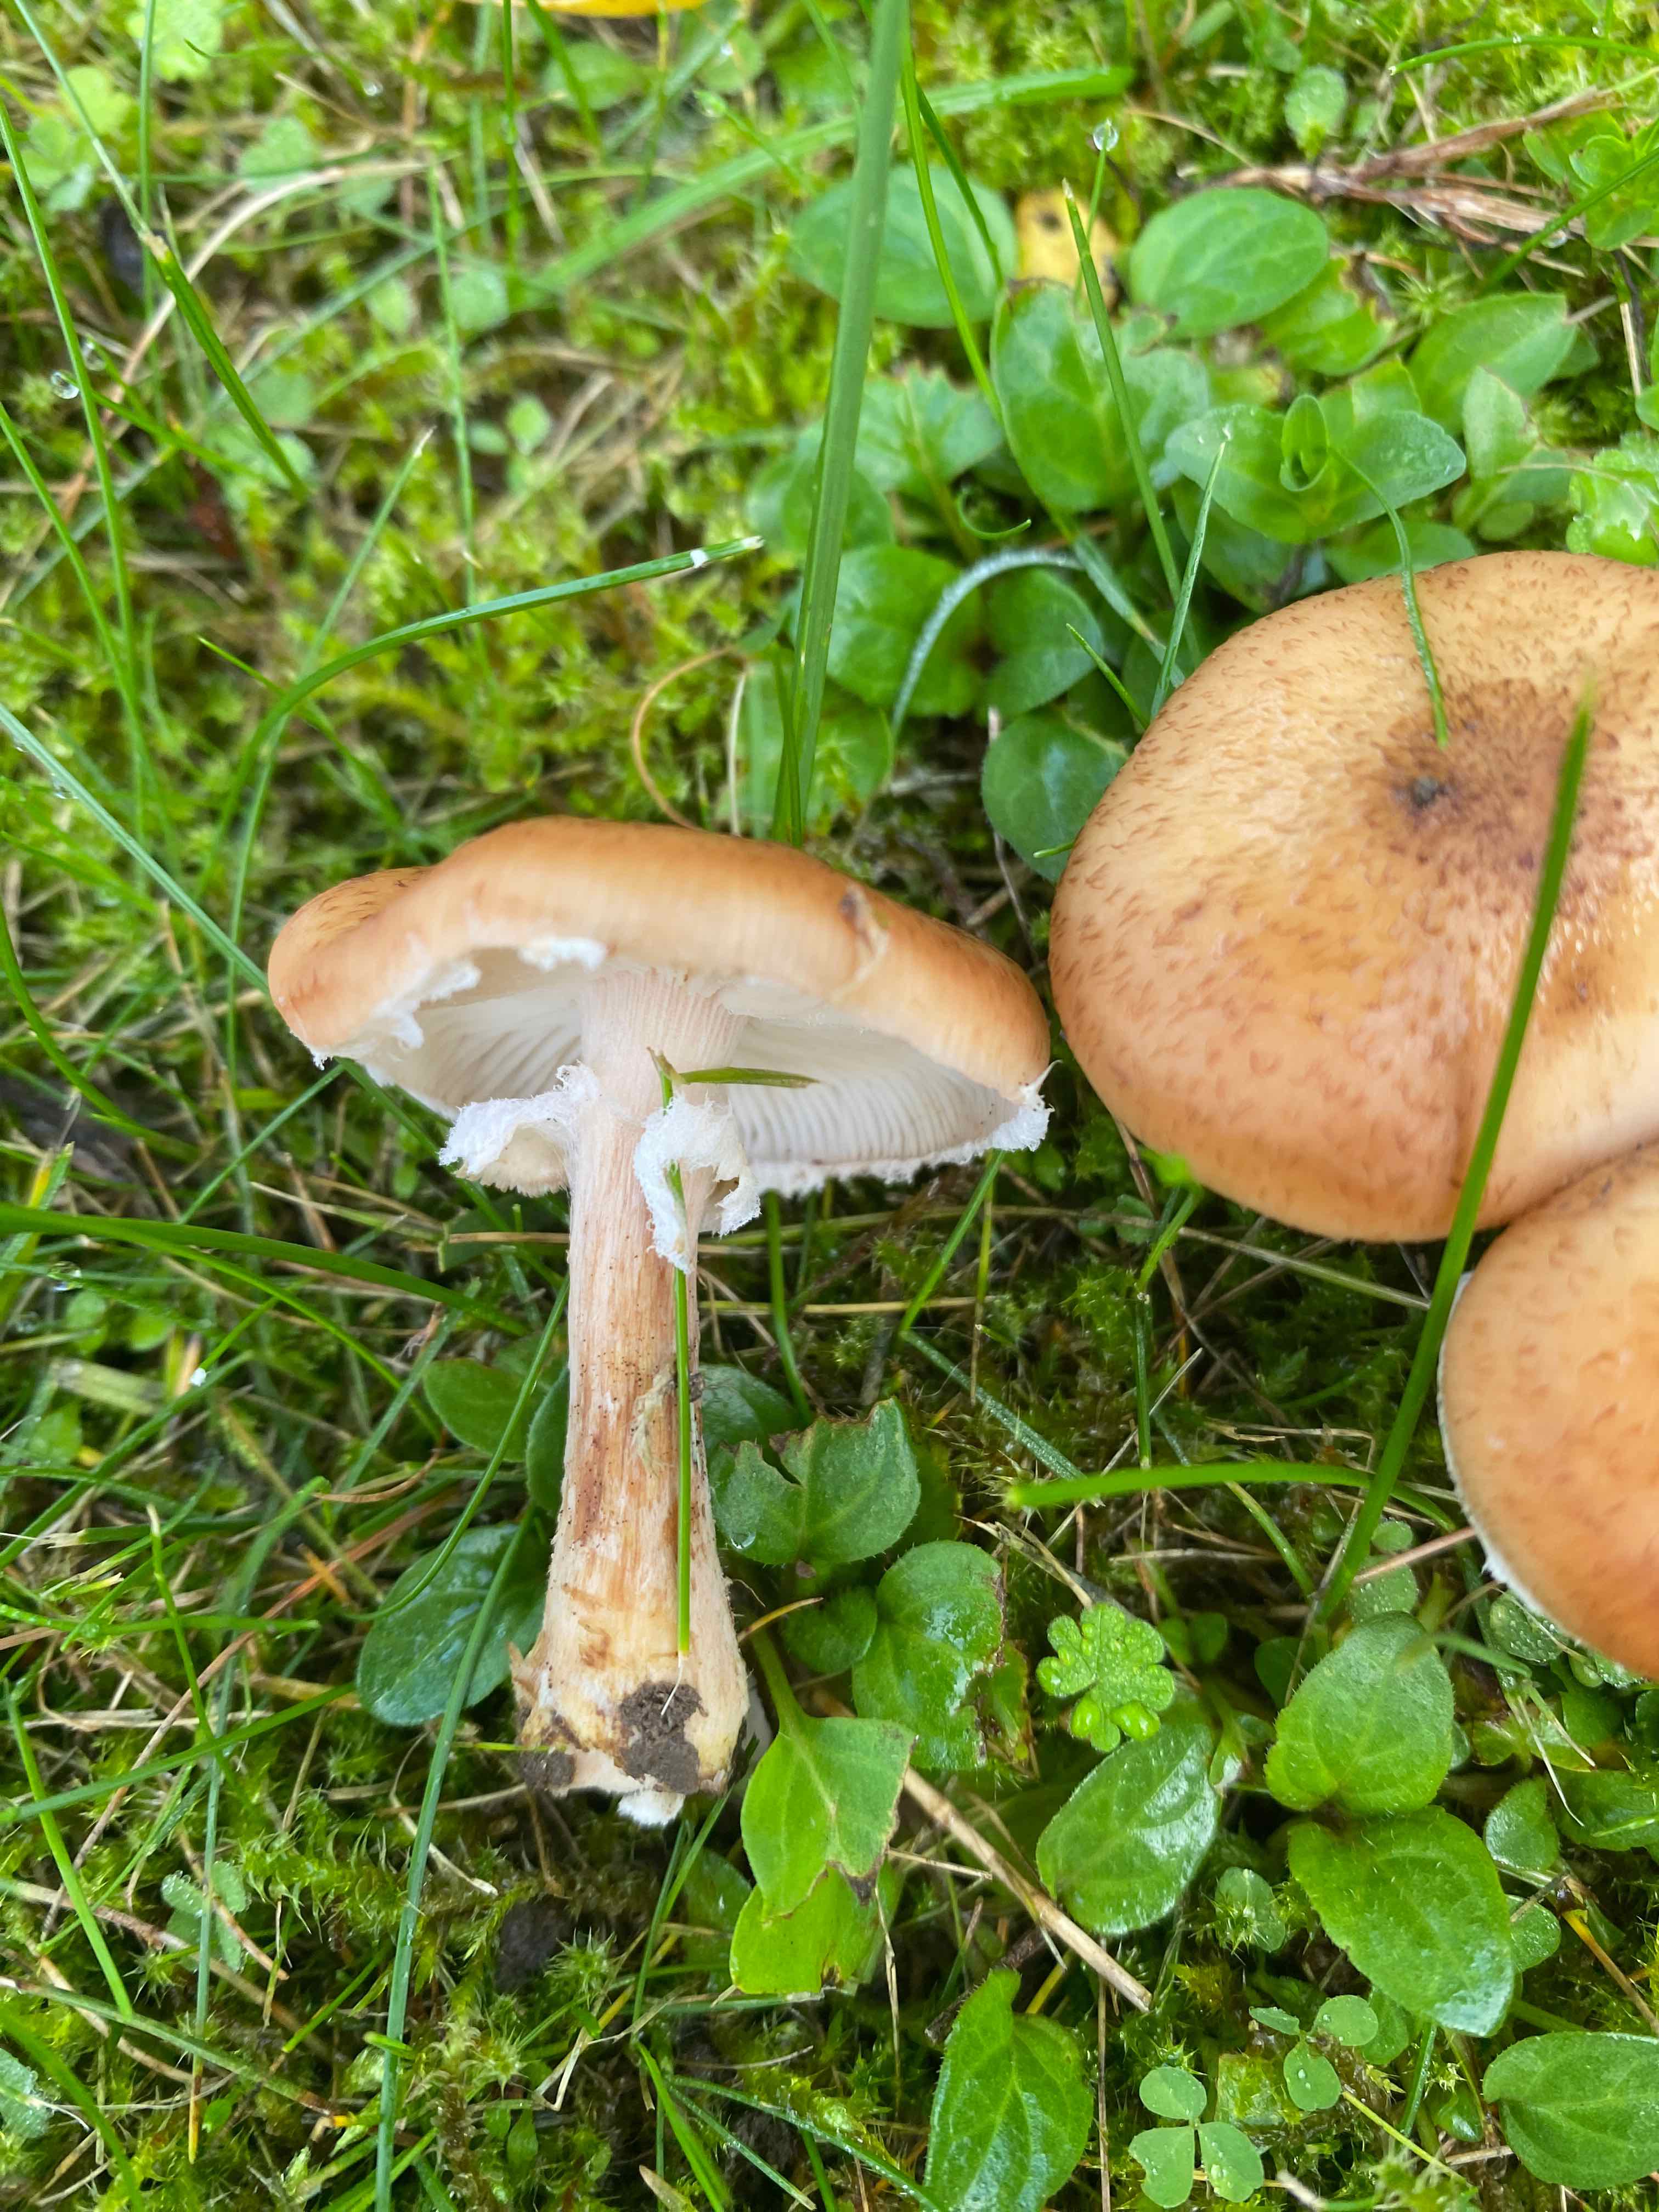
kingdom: Fungi
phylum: Basidiomycota
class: Agaricomycetes
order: Agaricales
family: Physalacriaceae
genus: Armillaria
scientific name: Armillaria
